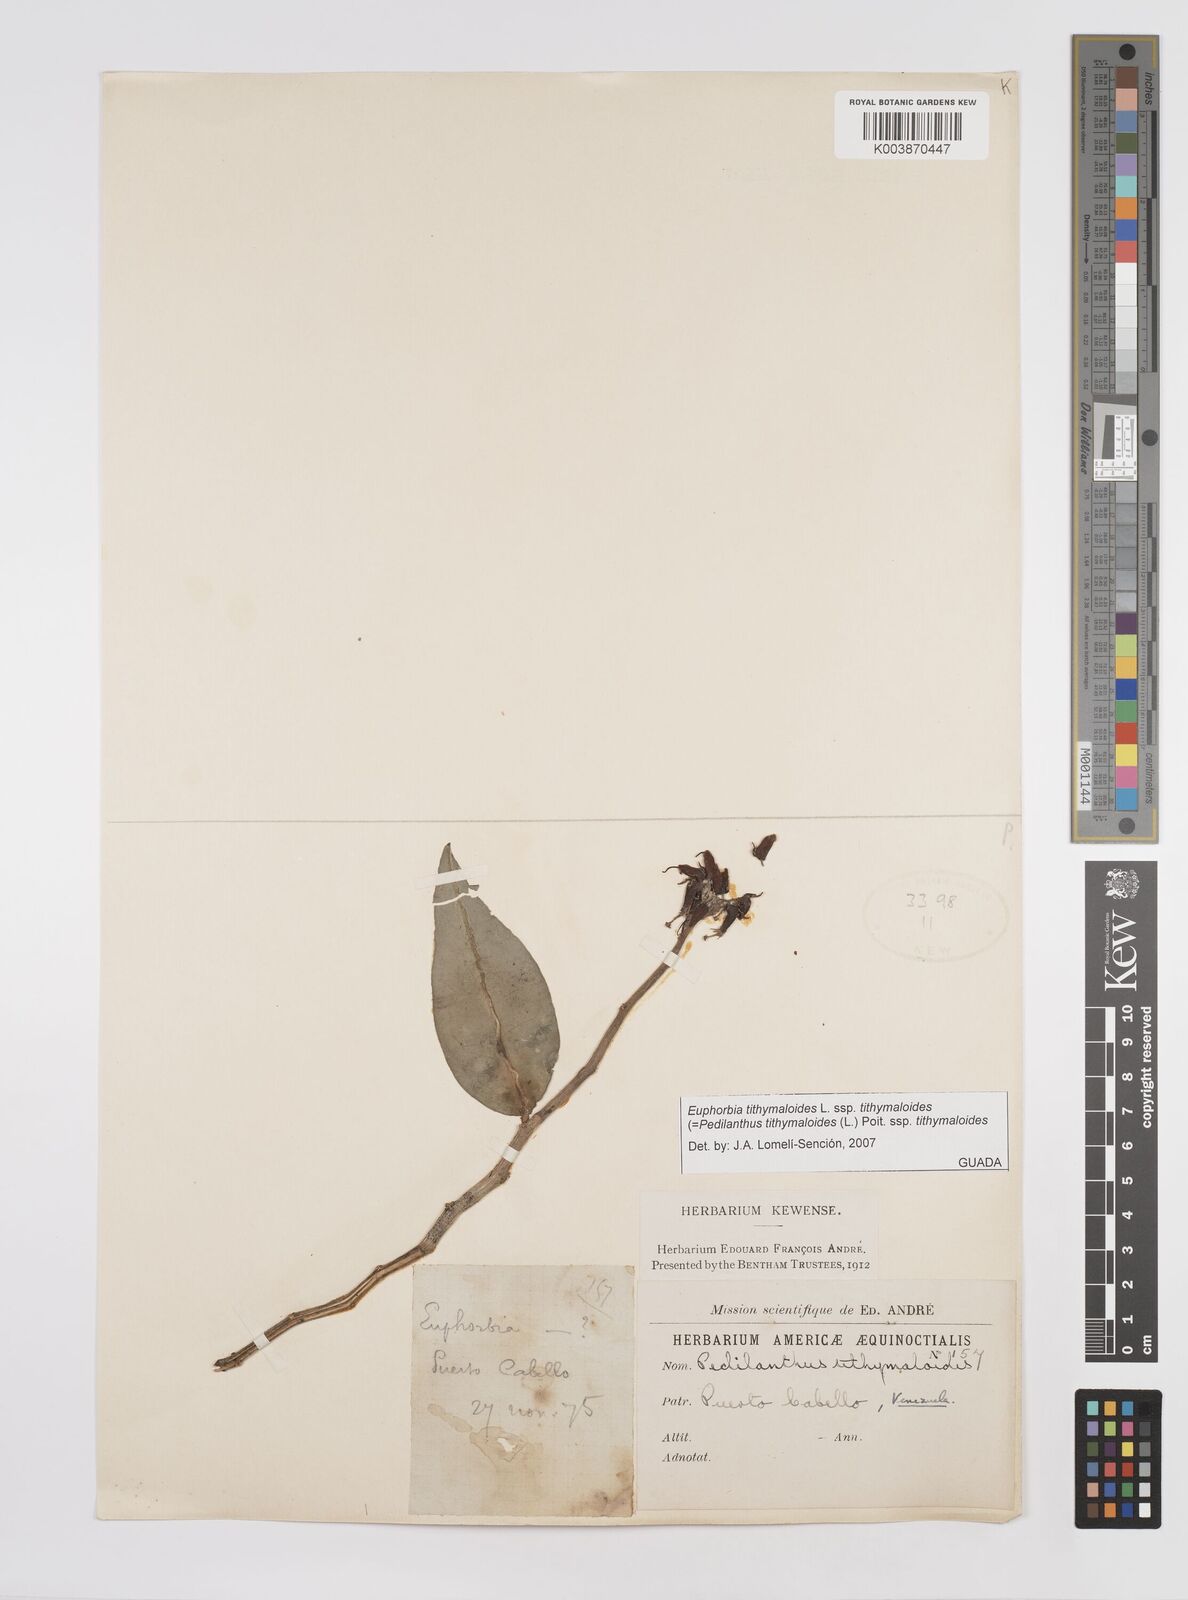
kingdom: Plantae
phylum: Tracheophyta
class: Magnoliopsida
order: Malpighiales
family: Euphorbiaceae
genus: Euphorbia
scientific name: Euphorbia tithymaloides
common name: Slipperplant
